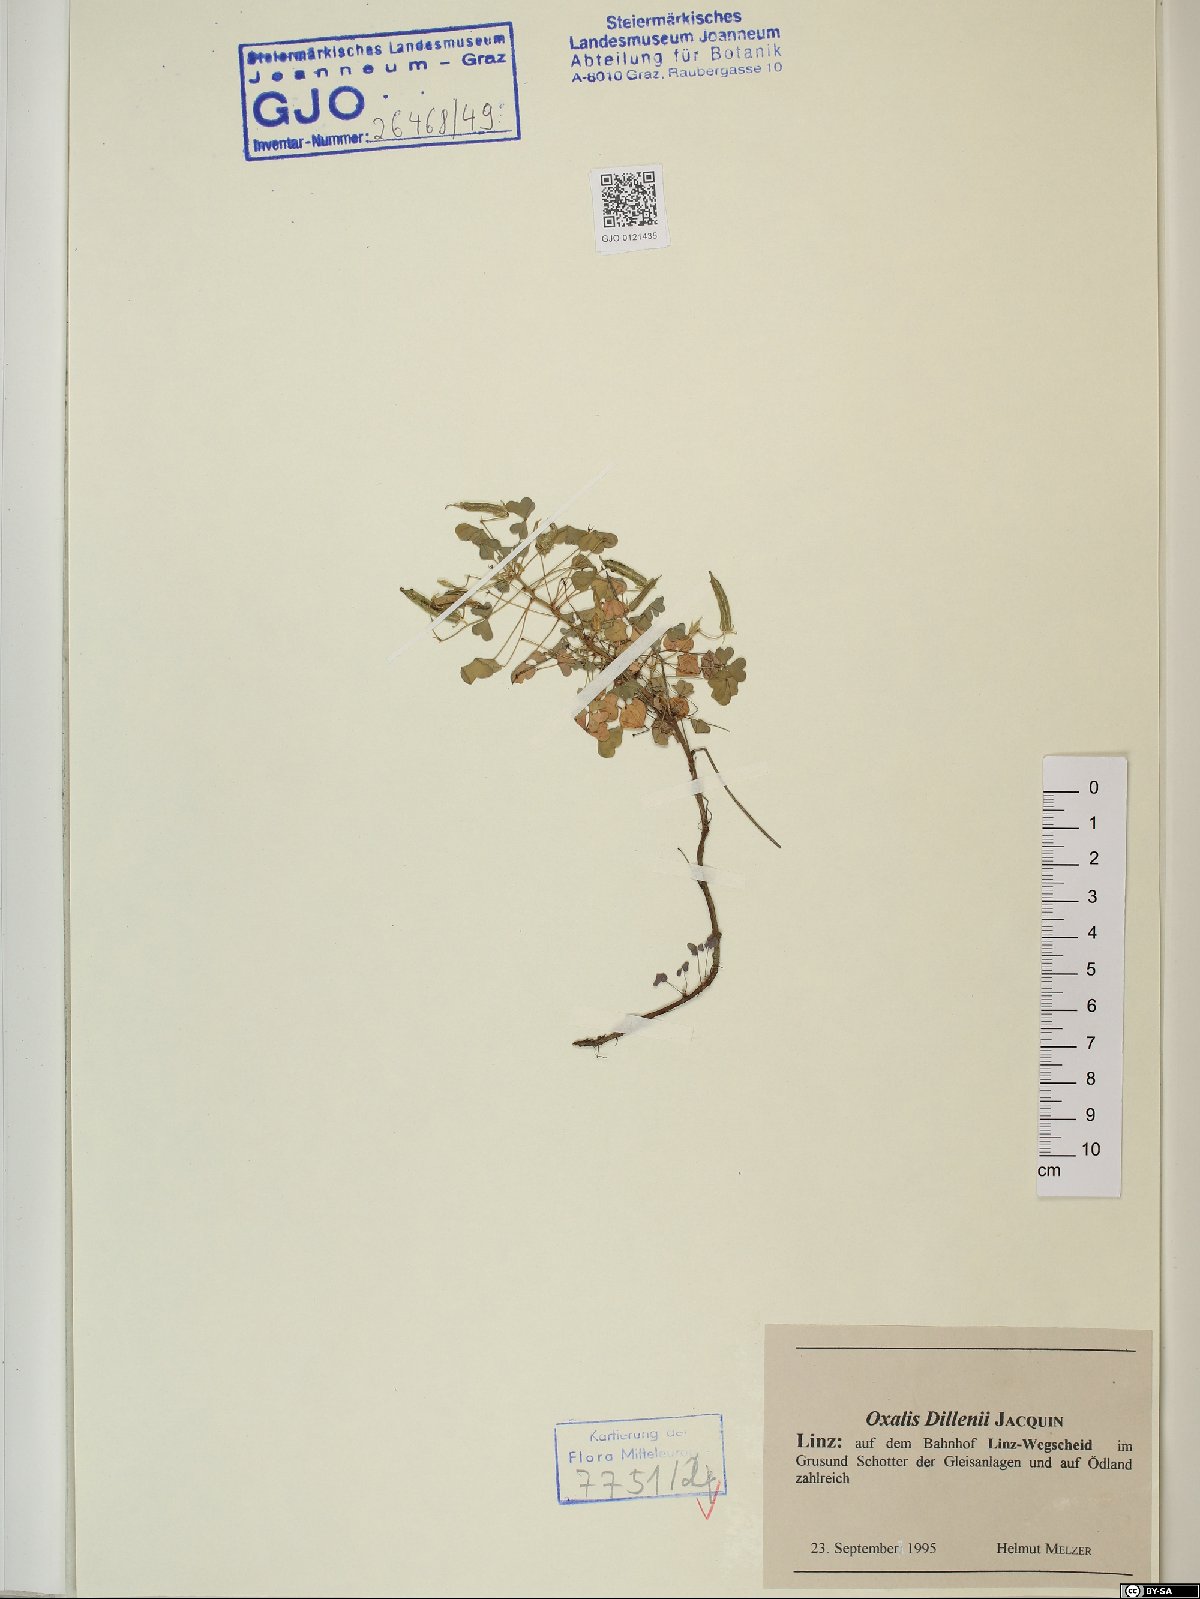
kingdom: Plantae
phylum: Tracheophyta
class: Magnoliopsida
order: Oxalidales
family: Oxalidaceae
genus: Oxalis
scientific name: Oxalis dillenii
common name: Sussex yellow-sorrel
